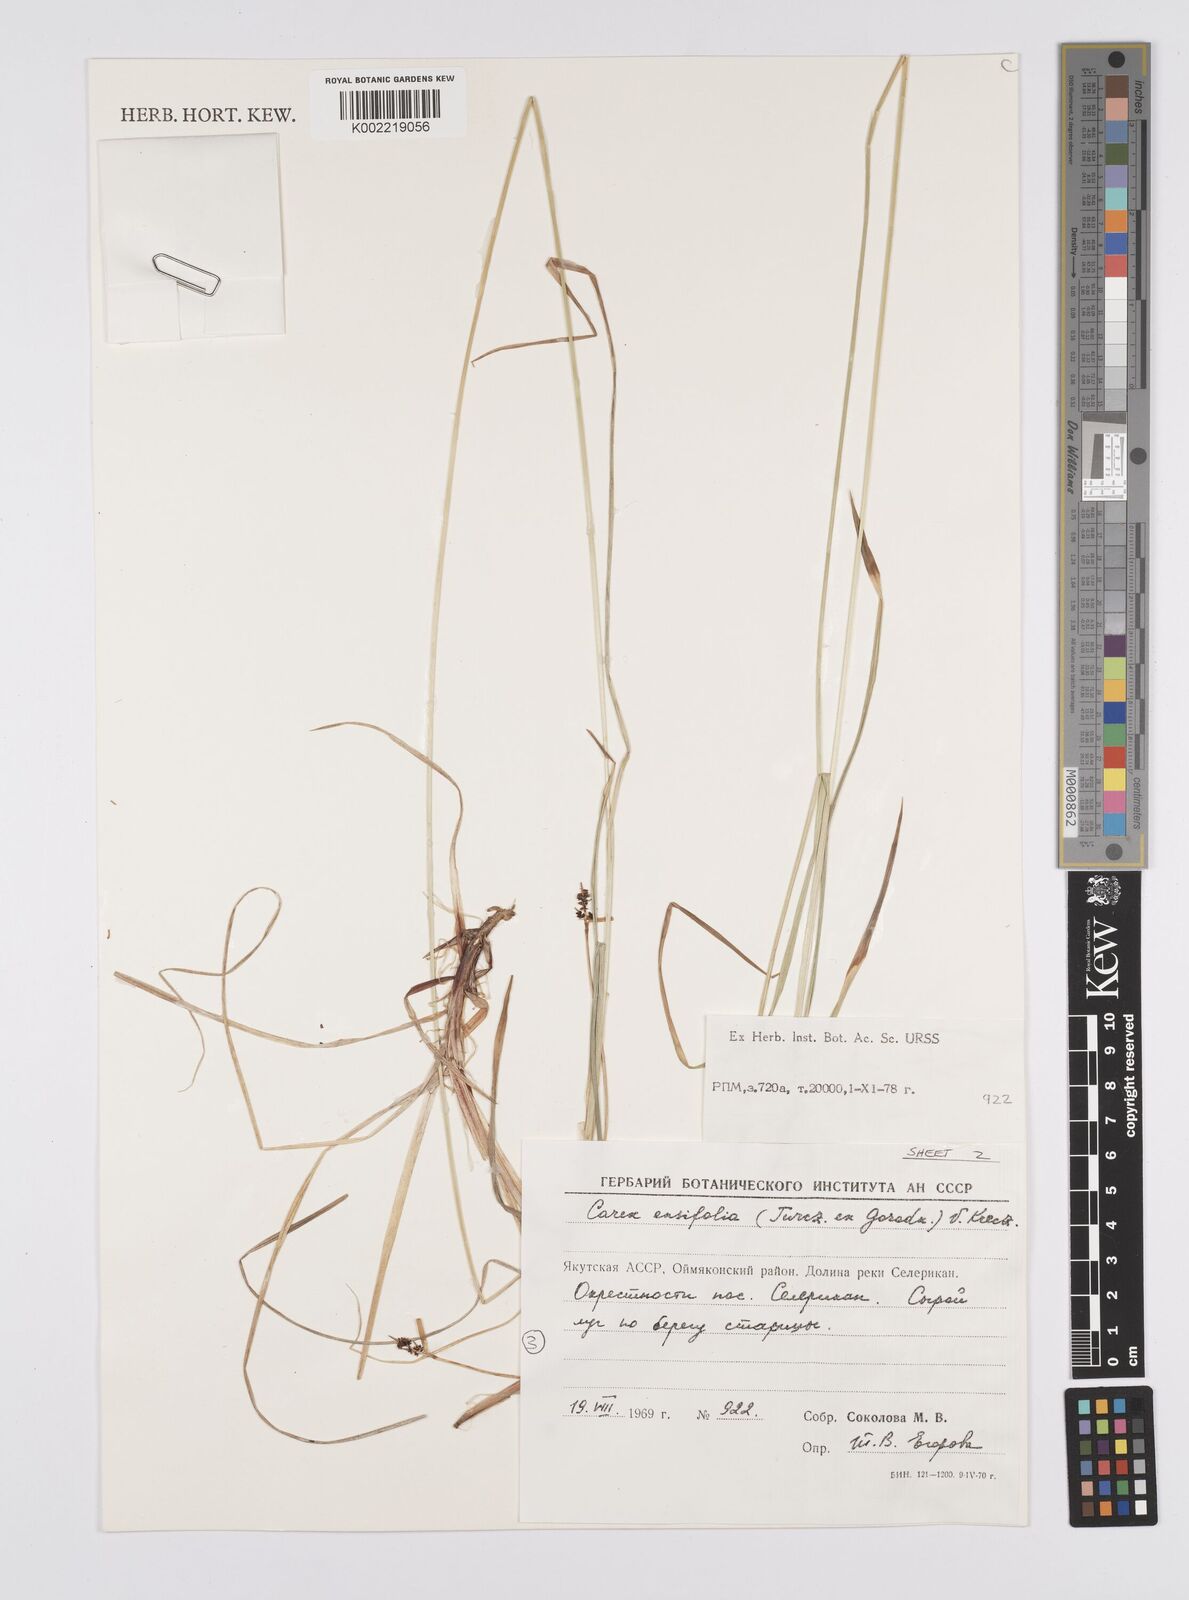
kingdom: Plantae
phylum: Tracheophyta
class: Liliopsida
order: Poales
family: Cyperaceae
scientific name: Cyperaceae
